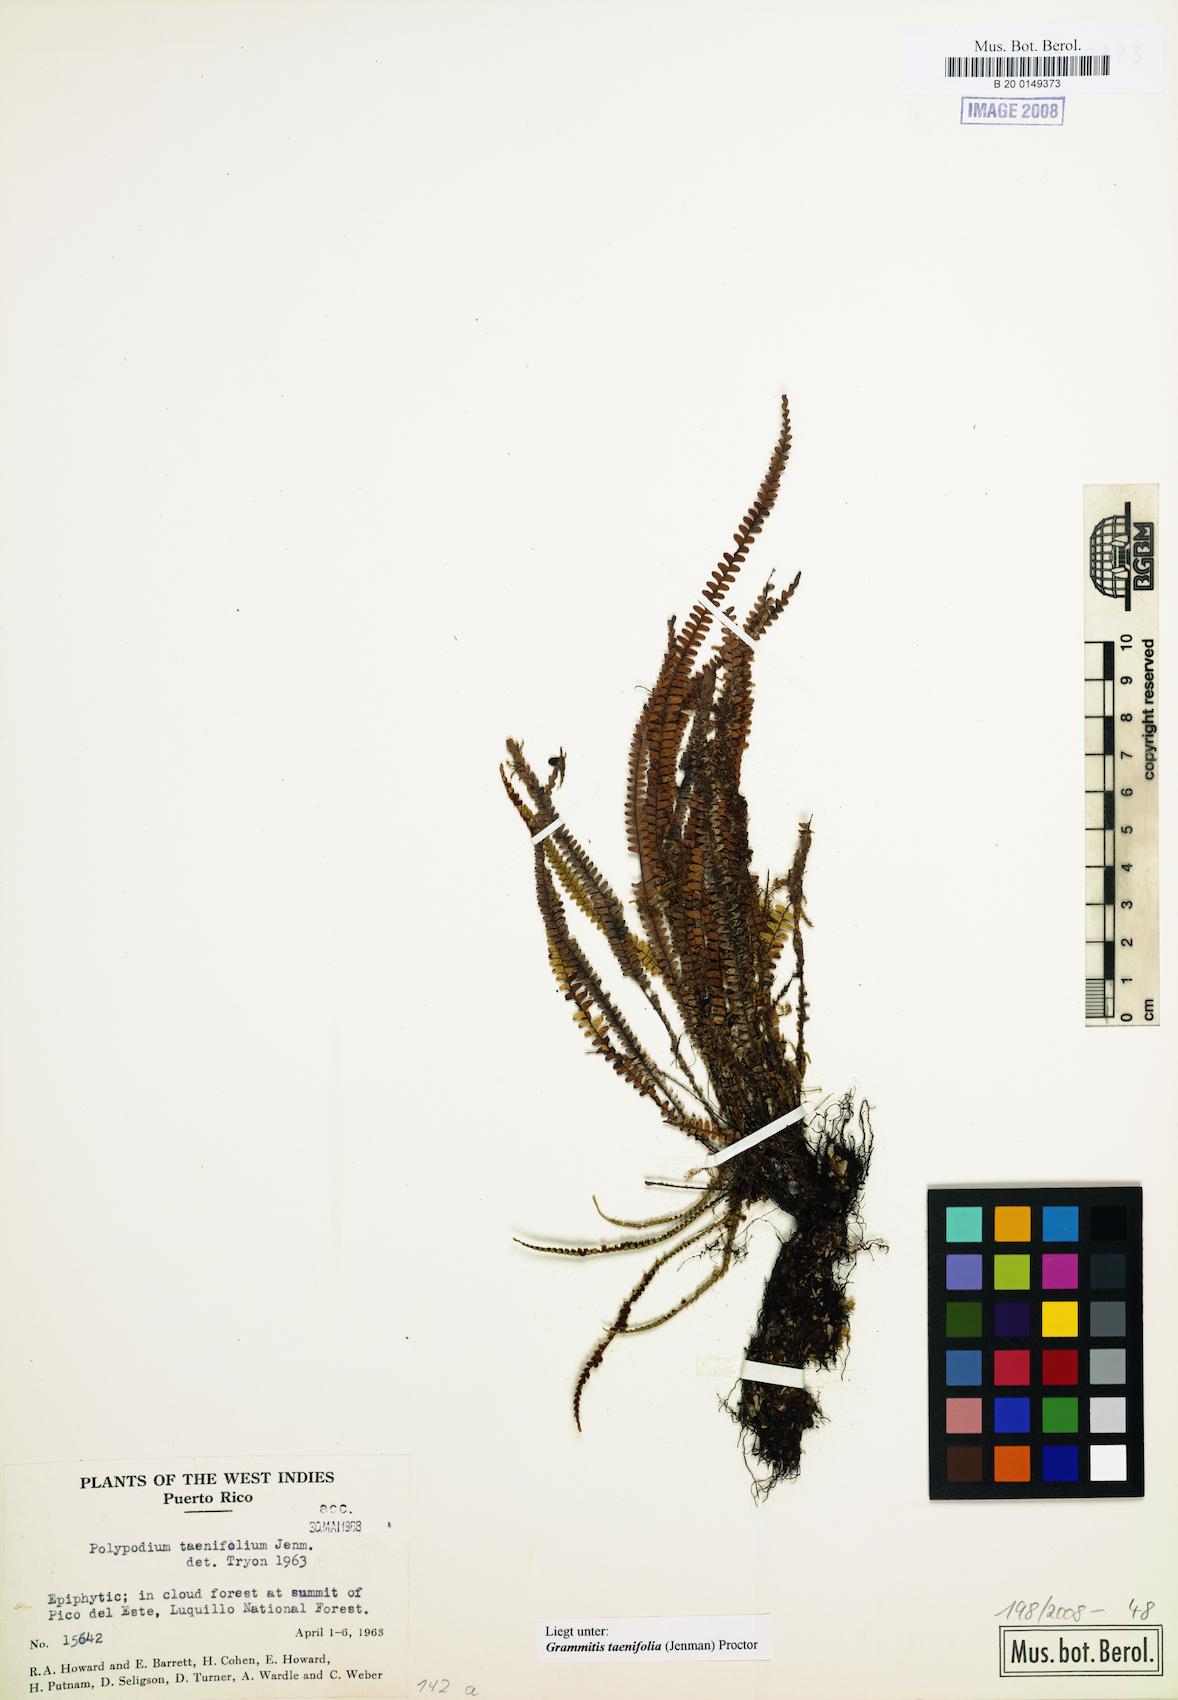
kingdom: Plantae
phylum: Tracheophyta
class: Polypodiopsida
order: Polypodiales
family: Polypodiaceae
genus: Moranopteris
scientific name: Moranopteris taenifolia
